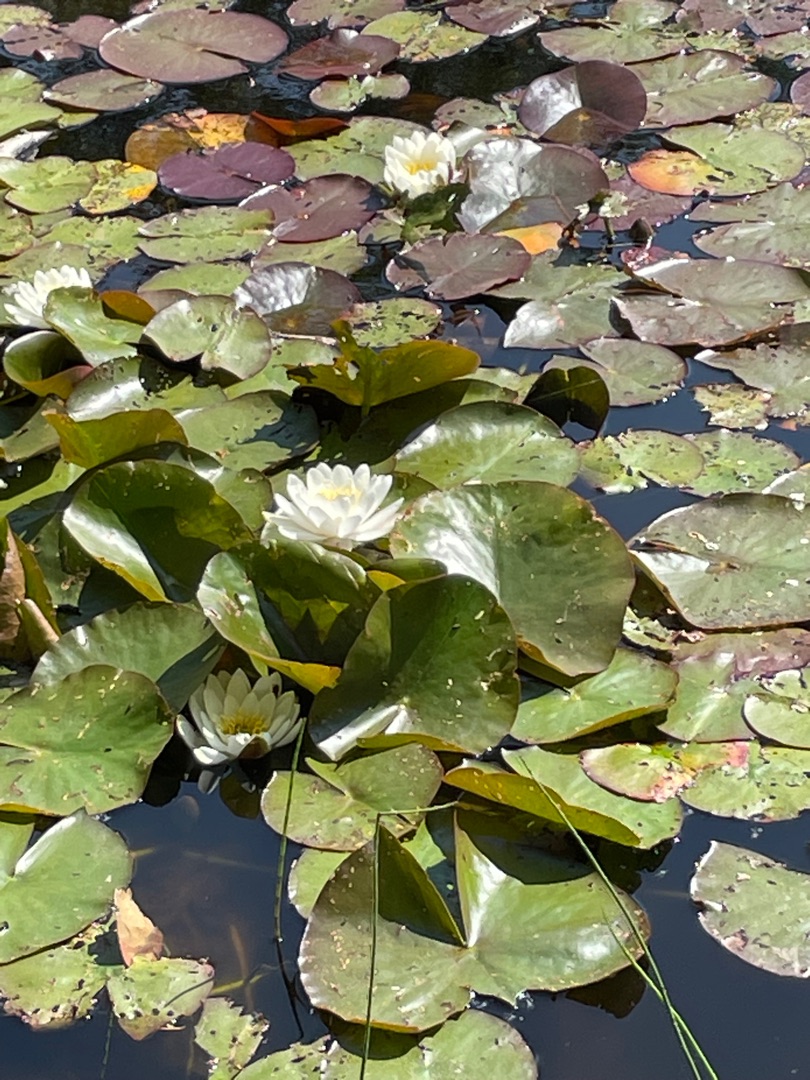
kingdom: Plantae
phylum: Tracheophyta
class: Magnoliopsida
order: Nymphaeales
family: Nymphaeaceae
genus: Nymphaea
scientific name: Nymphaea alba
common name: Hvid åkande
